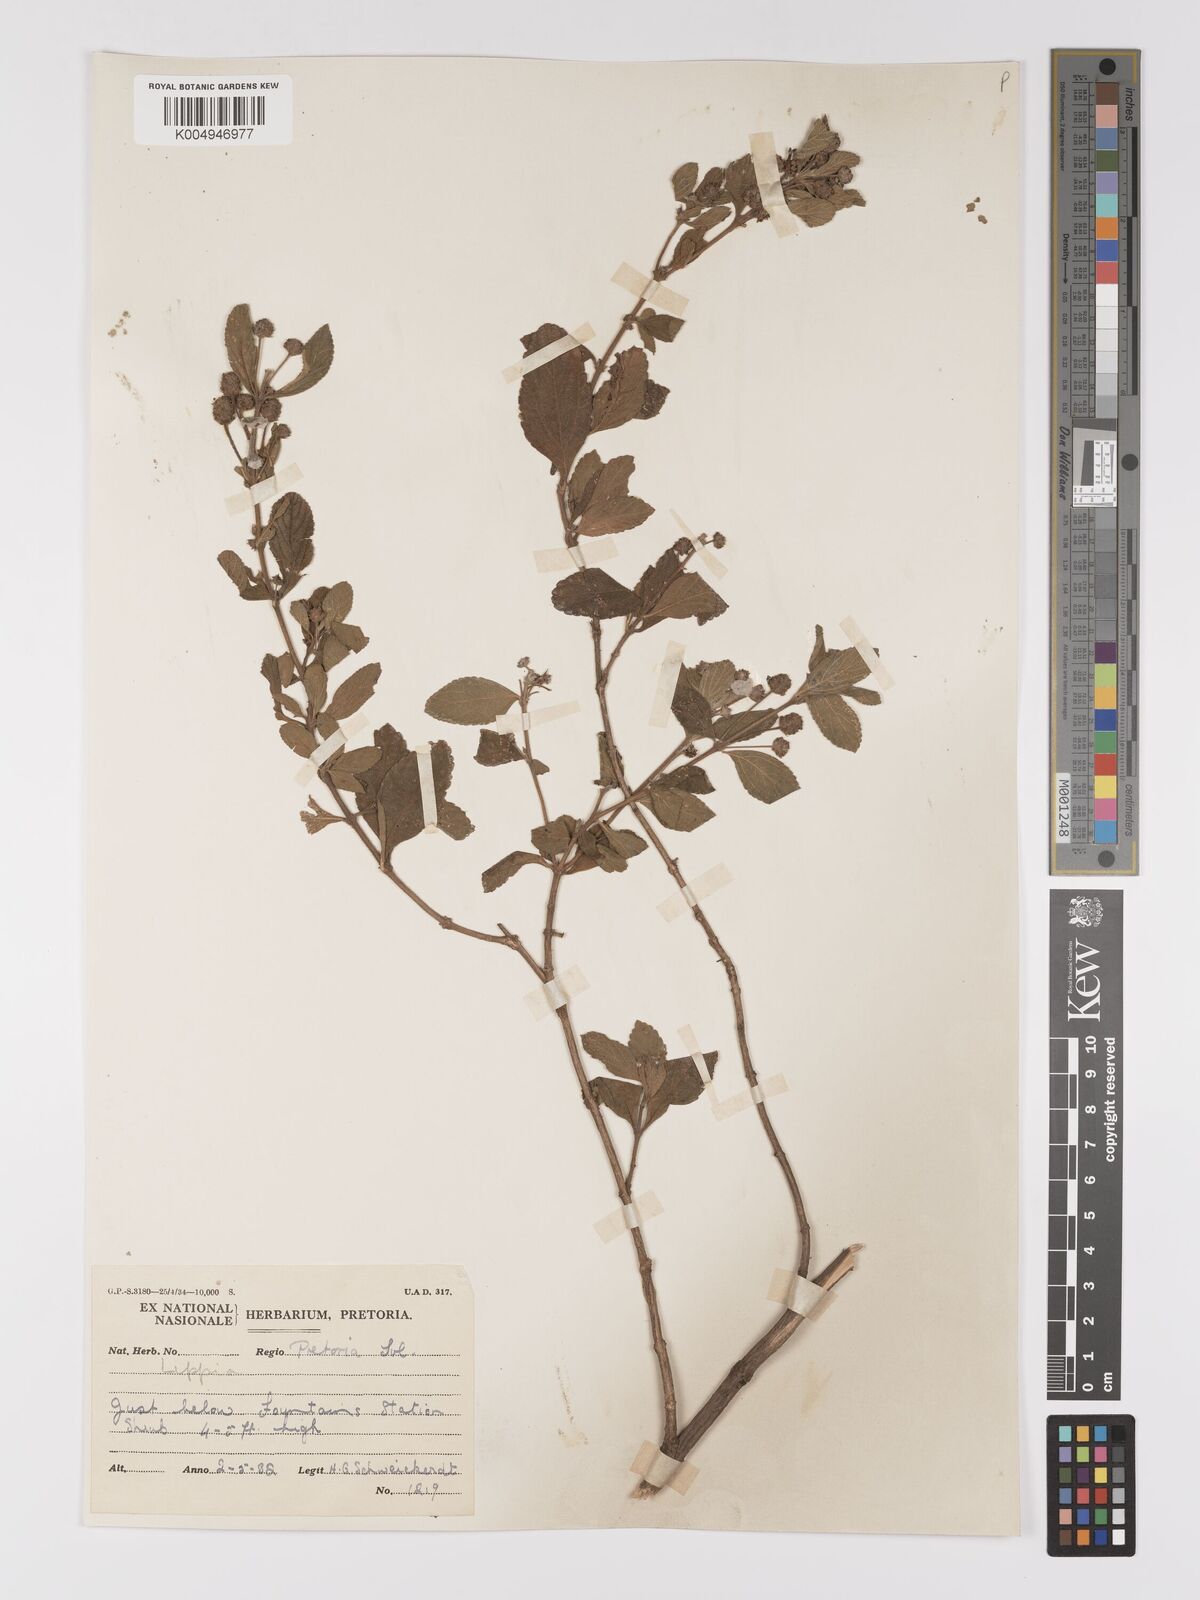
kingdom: Plantae
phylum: Tracheophyta
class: Magnoliopsida
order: Lamiales
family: Verbenaceae
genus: Lippia
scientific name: Lippia
